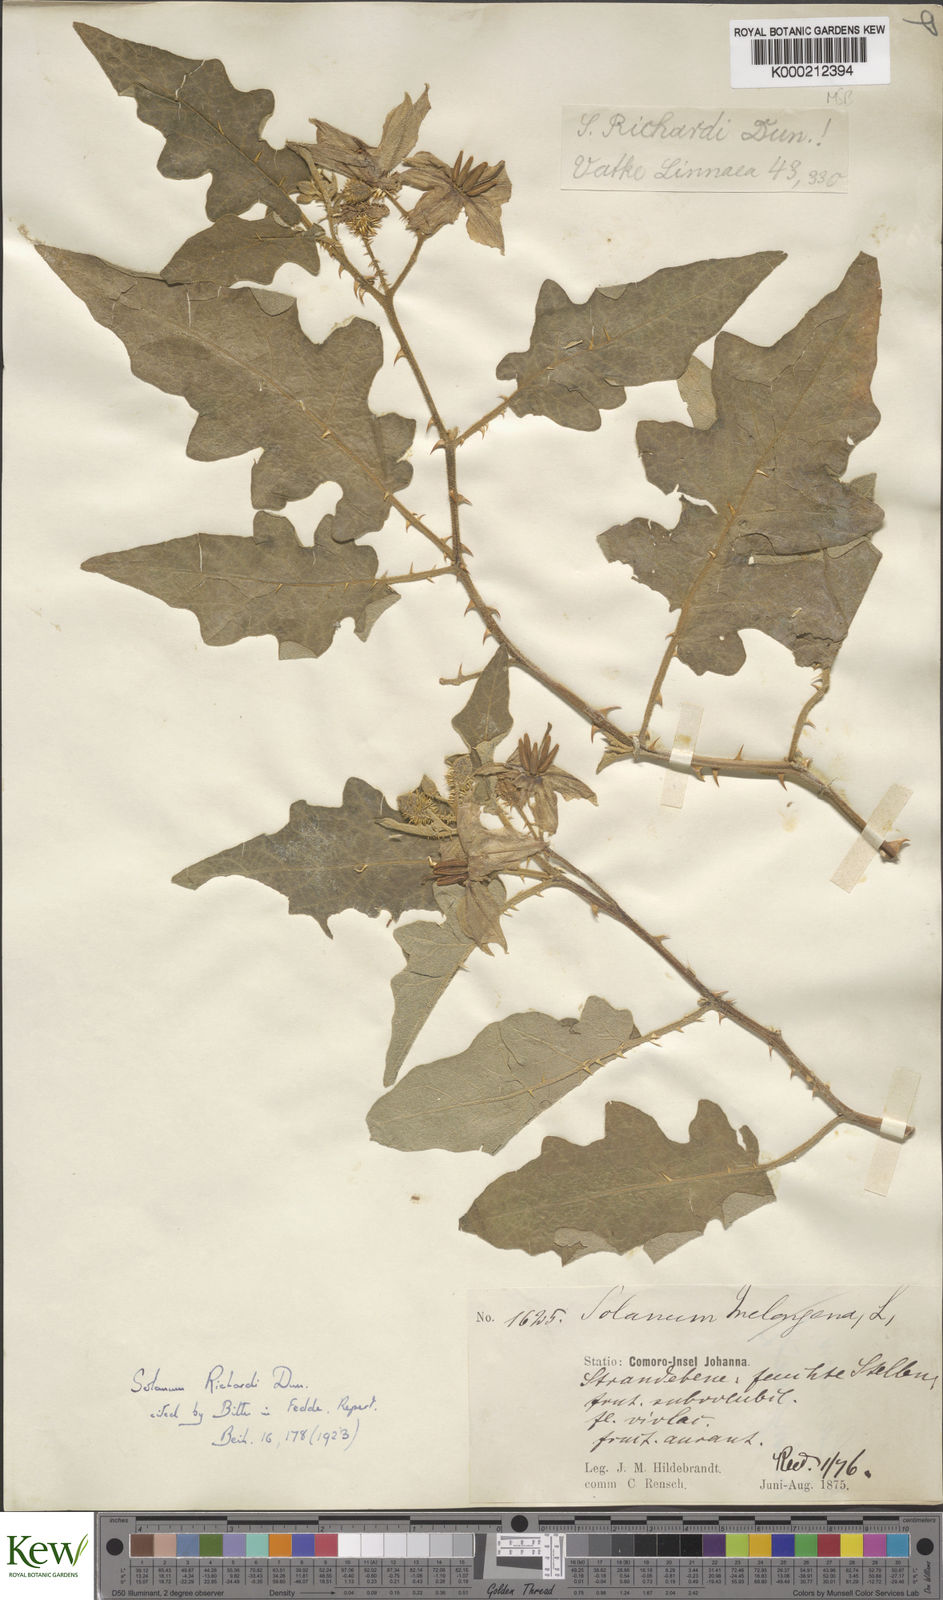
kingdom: Plantae
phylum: Tracheophyta
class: Magnoliopsida
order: Solanales
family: Solanaceae
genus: Solanum
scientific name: Solanum richardii
